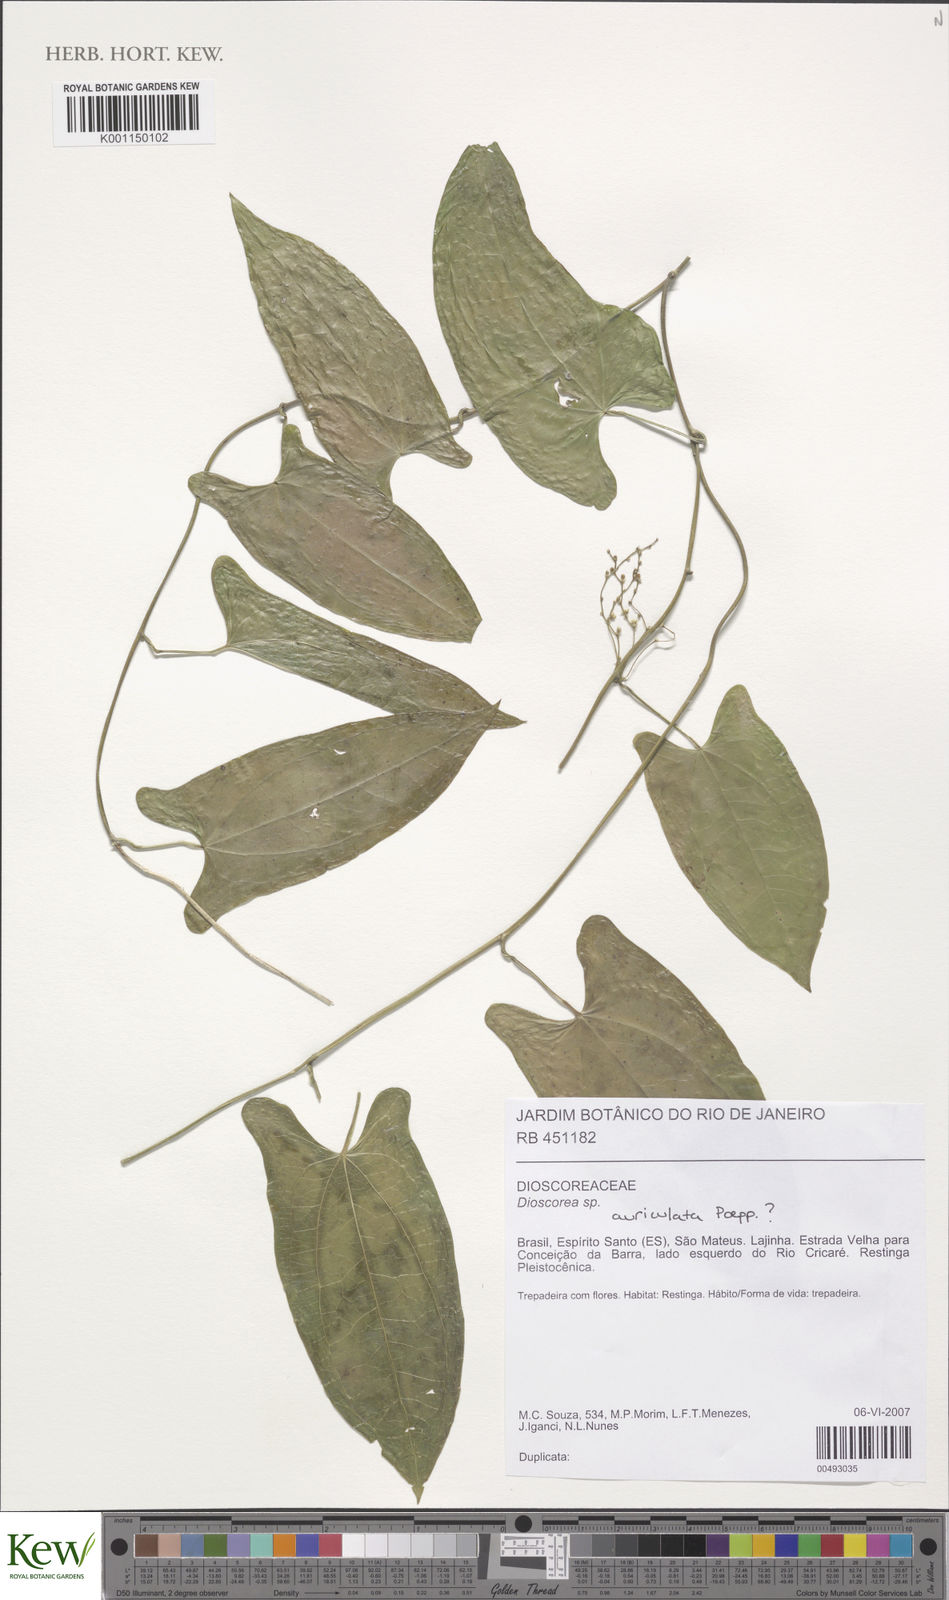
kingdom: Plantae
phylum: Tracheophyta
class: Liliopsida
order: Dioscoreales
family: Dioscoreaceae
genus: Dioscorea
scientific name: Dioscorea laxiflora
